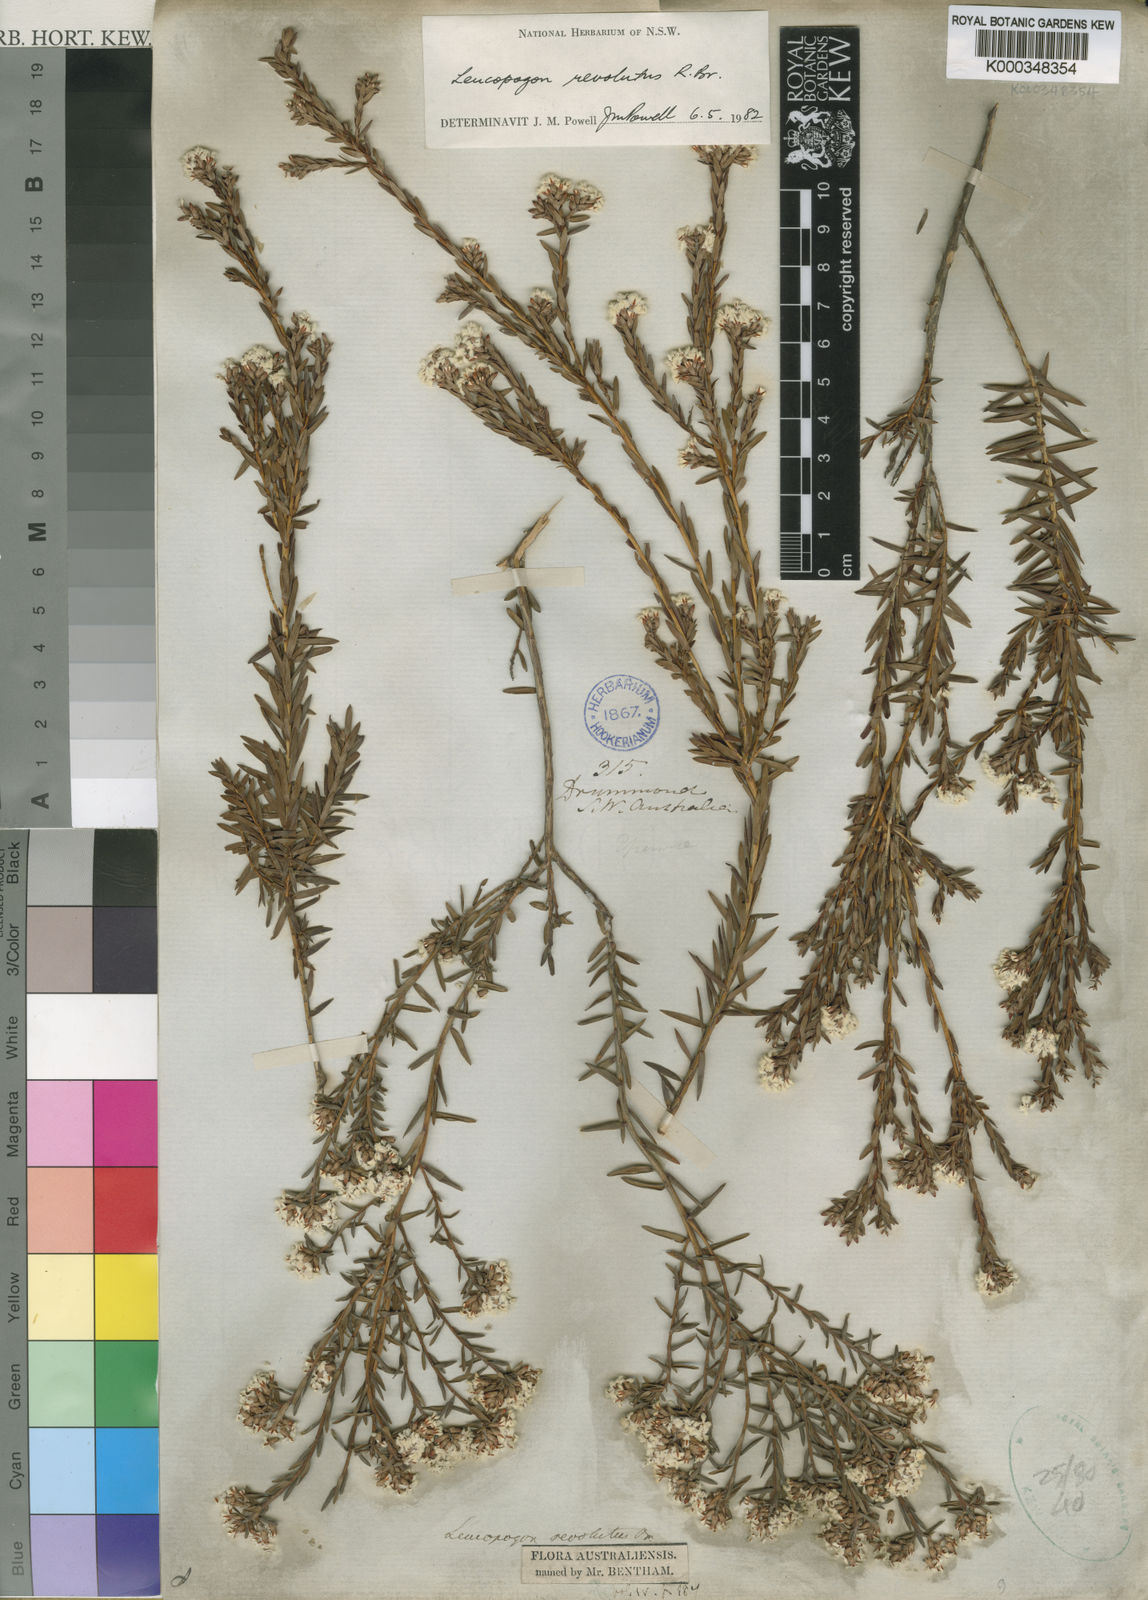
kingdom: Plantae
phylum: Tracheophyta
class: Magnoliopsida
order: Ericales
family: Ericaceae
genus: Leucopogon
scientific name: Leucopogon obovatus
